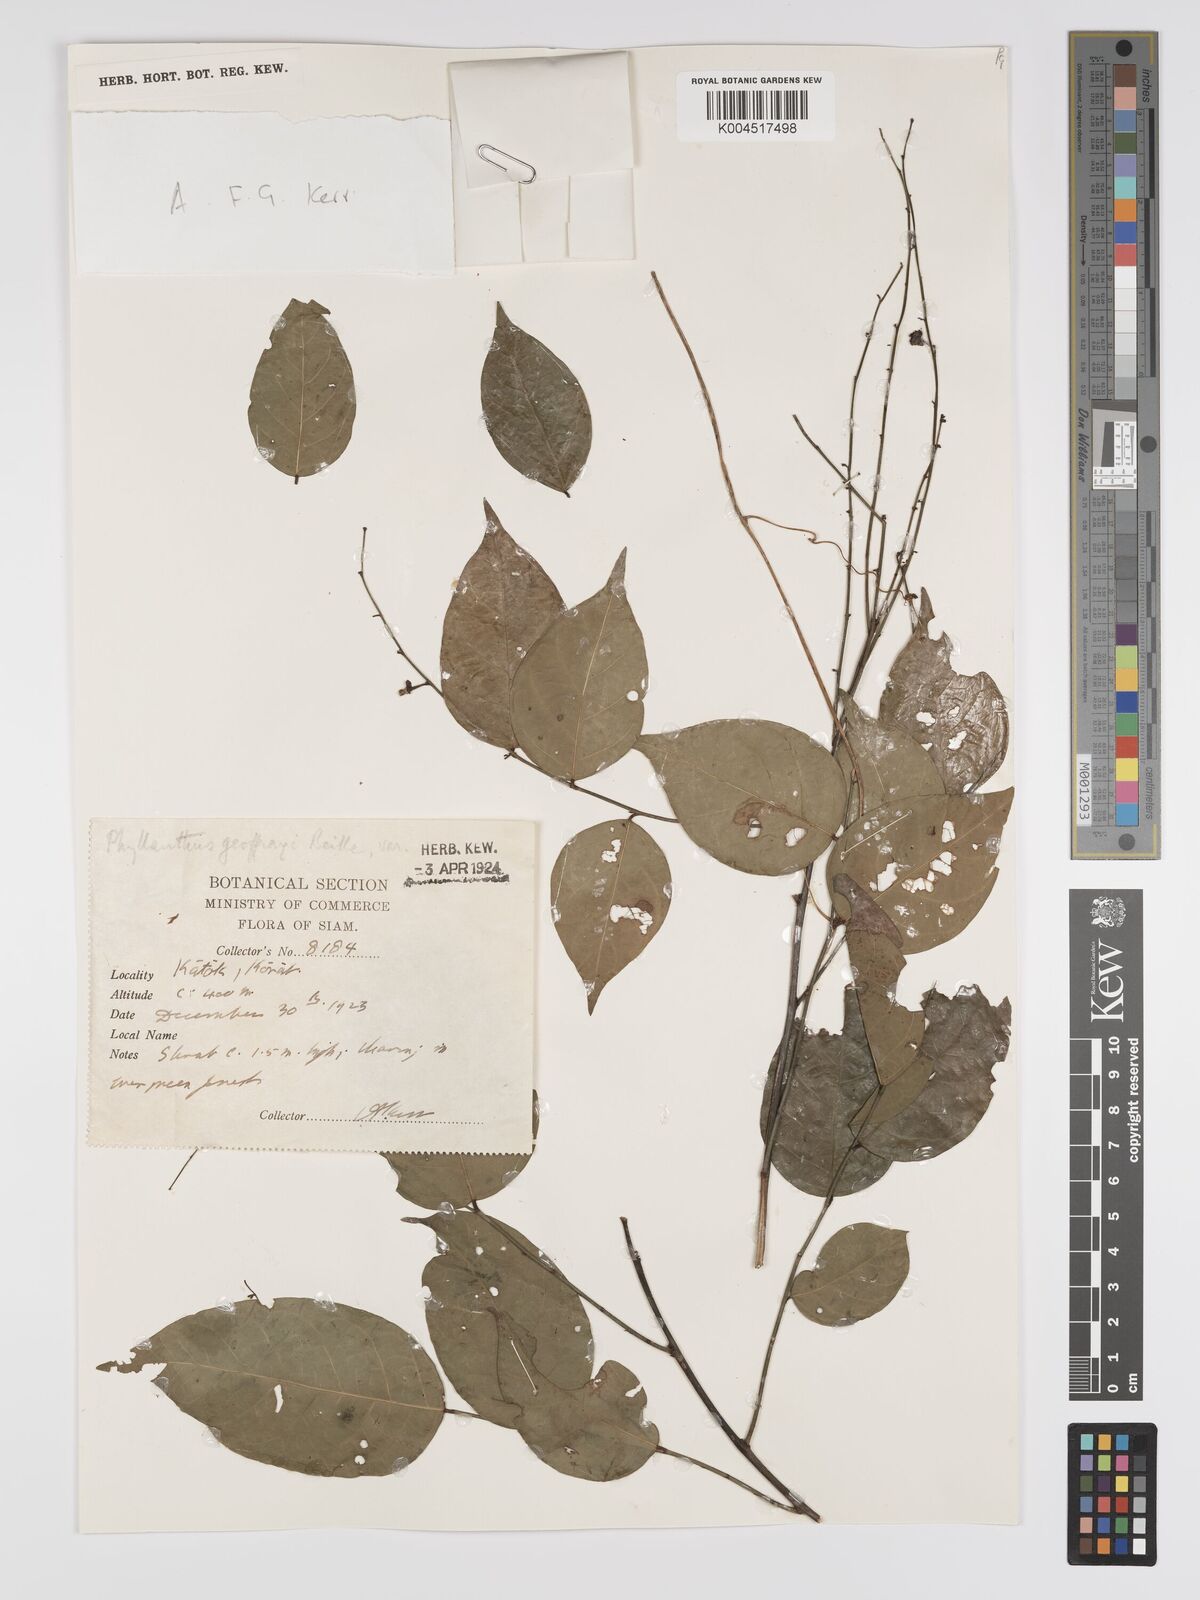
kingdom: Plantae
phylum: Tracheophyta
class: Magnoliopsida
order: Malpighiales
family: Phyllanthaceae
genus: Phyllanthus
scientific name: Phyllanthus geoffrayi
